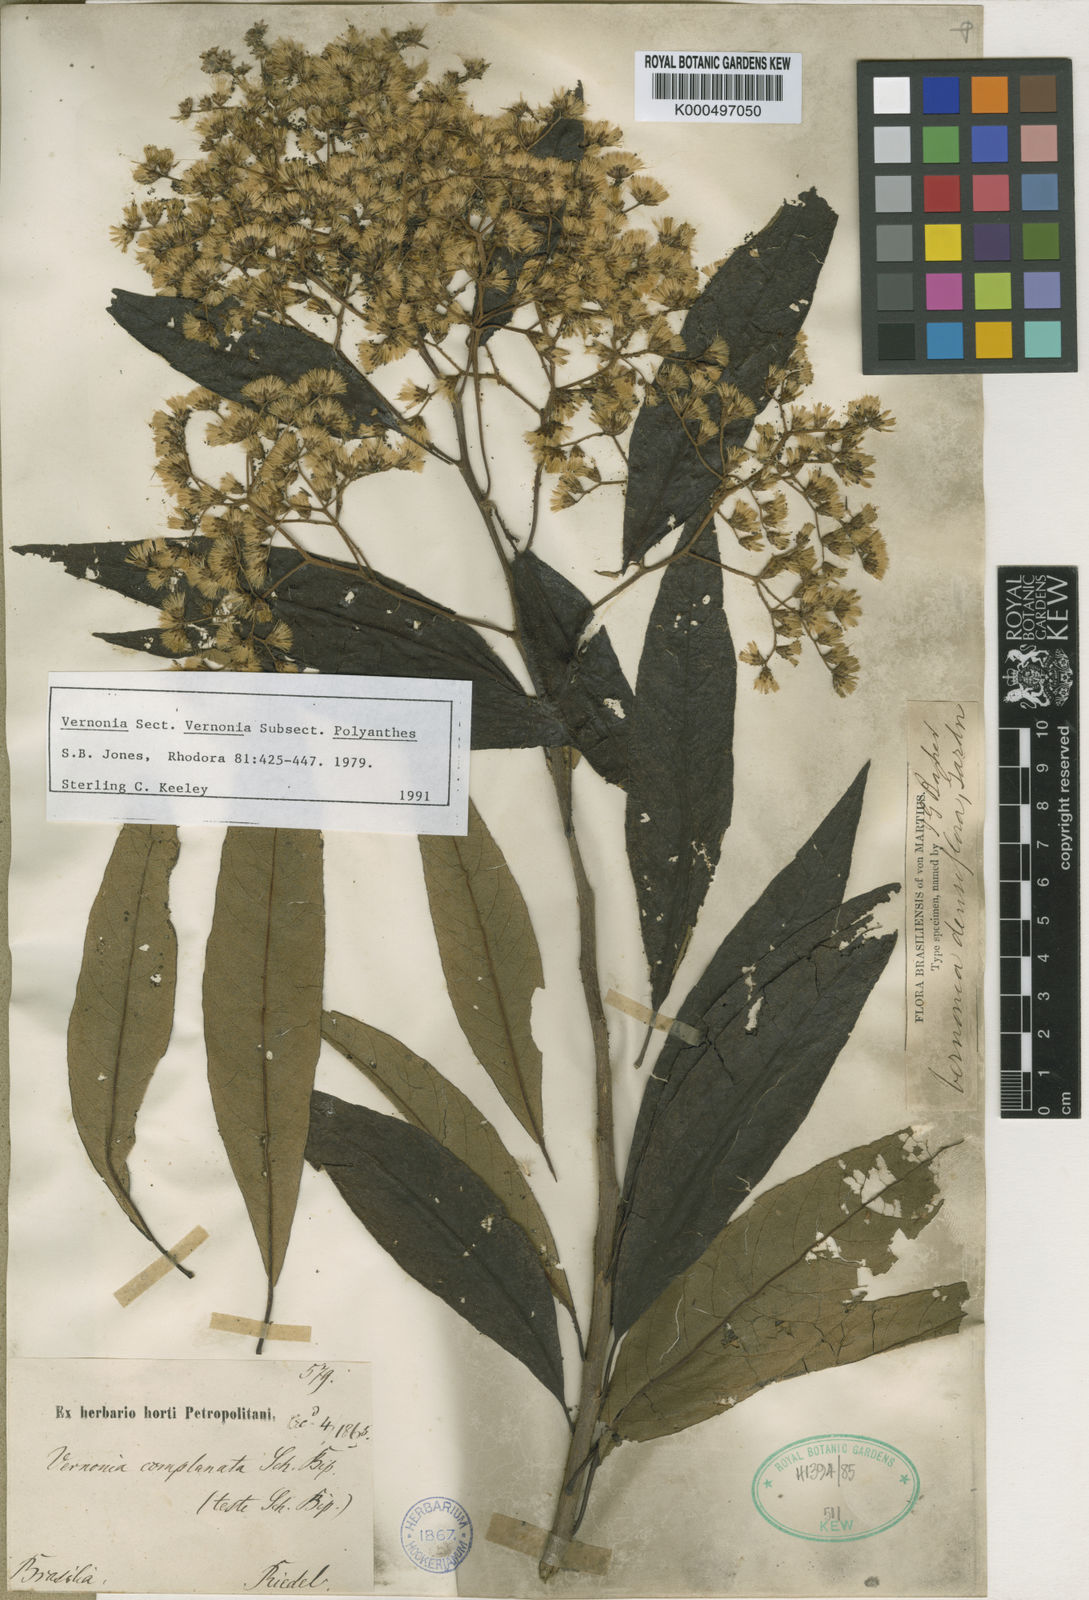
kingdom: Plantae
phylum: Tracheophyta
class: Magnoliopsida
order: Asterales
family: Asteraceae
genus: Vernonanthura
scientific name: Vernonanthura densiflora
